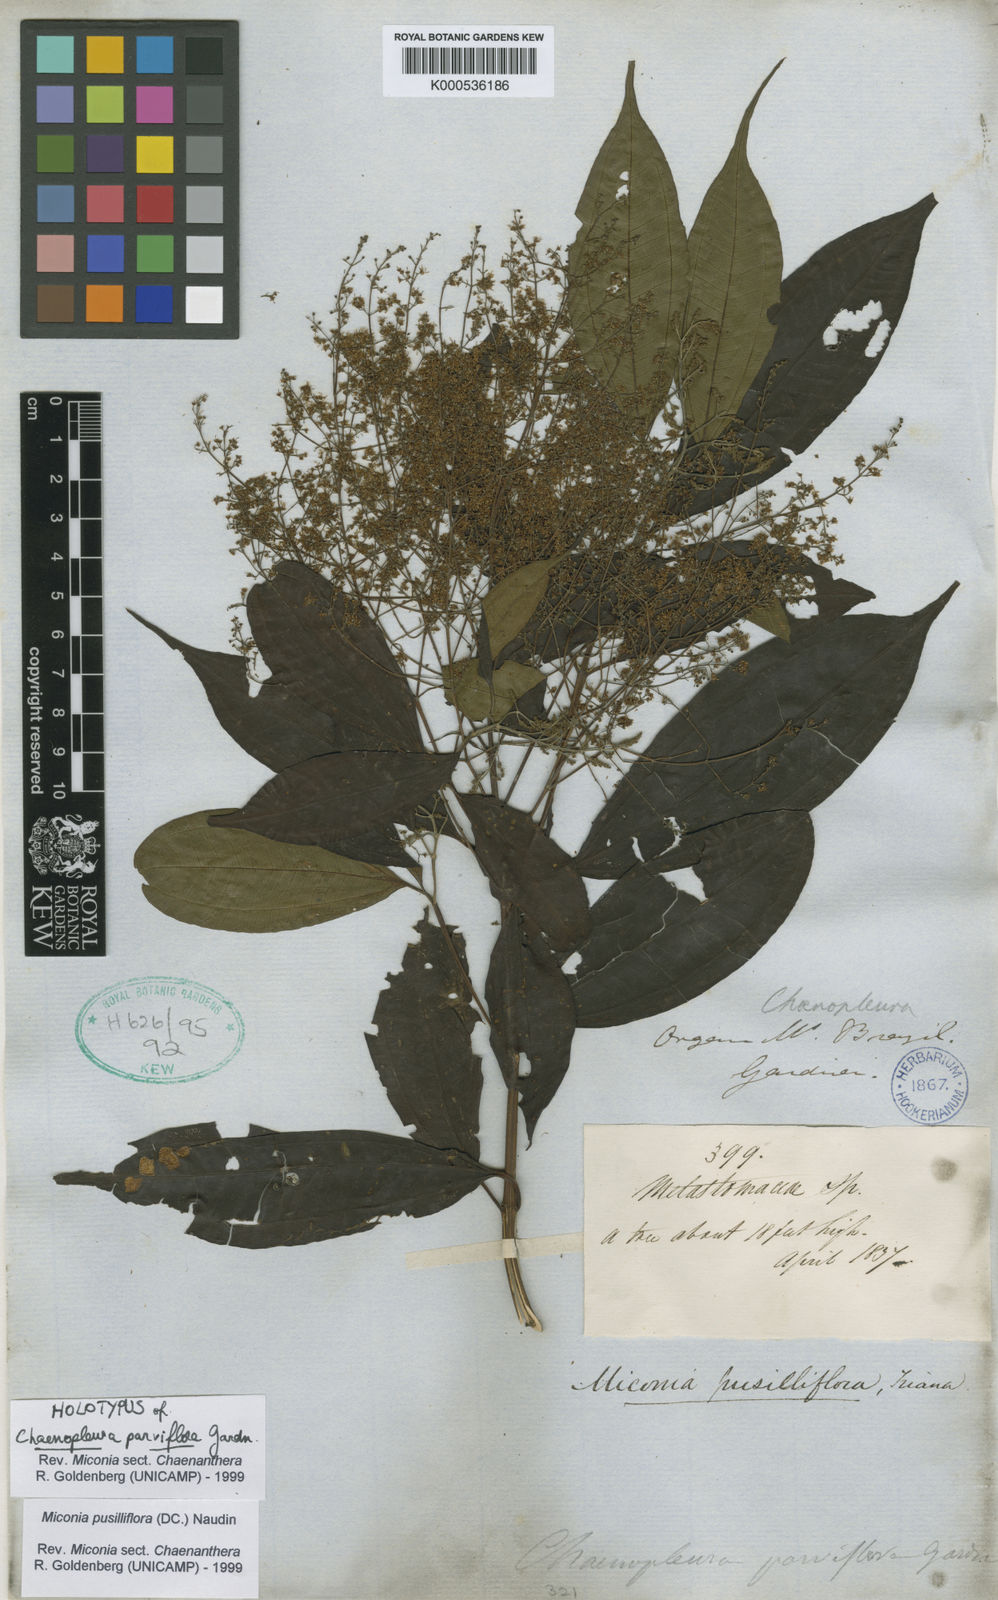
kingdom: Plantae
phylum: Tracheophyta
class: Magnoliopsida
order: Myrtales
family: Melastomataceae
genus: Miconia
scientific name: Miconia pusilliflora
